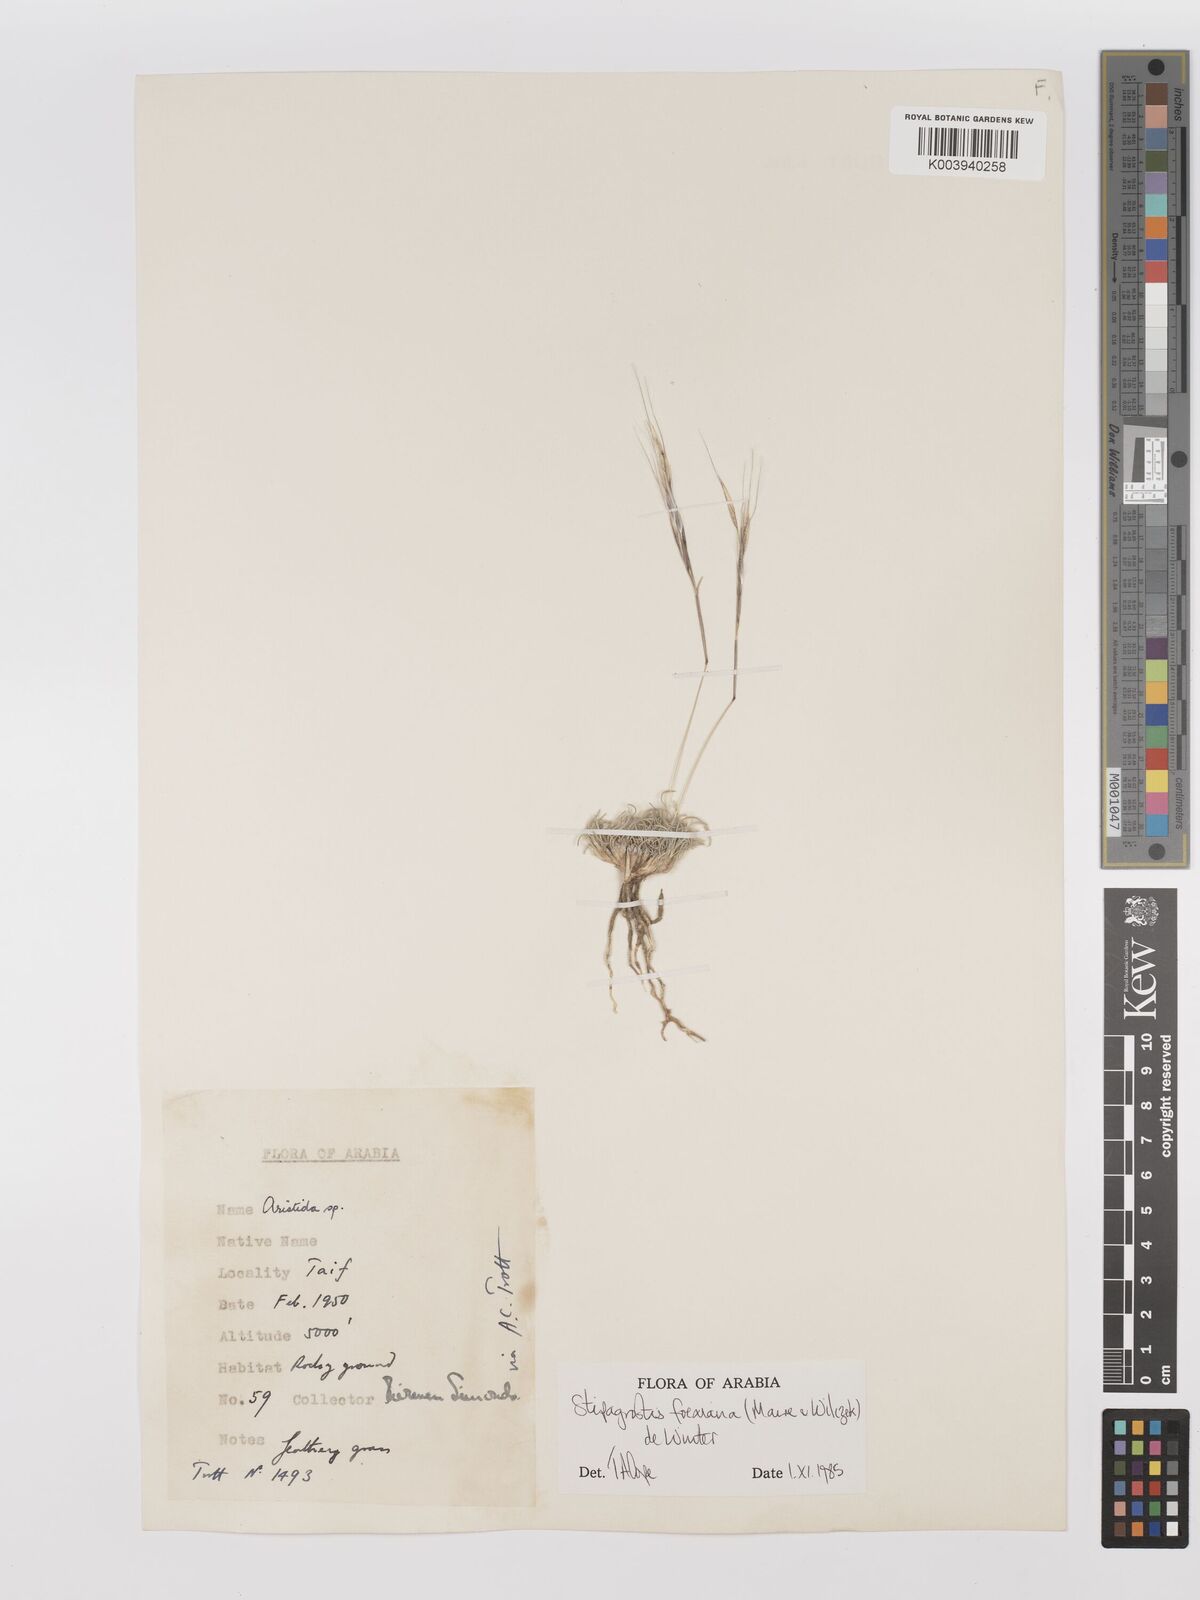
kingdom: Plantae
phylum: Tracheophyta
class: Liliopsida
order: Poales
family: Poaceae
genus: Stipagrostis
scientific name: Stipagrostis foexiana
